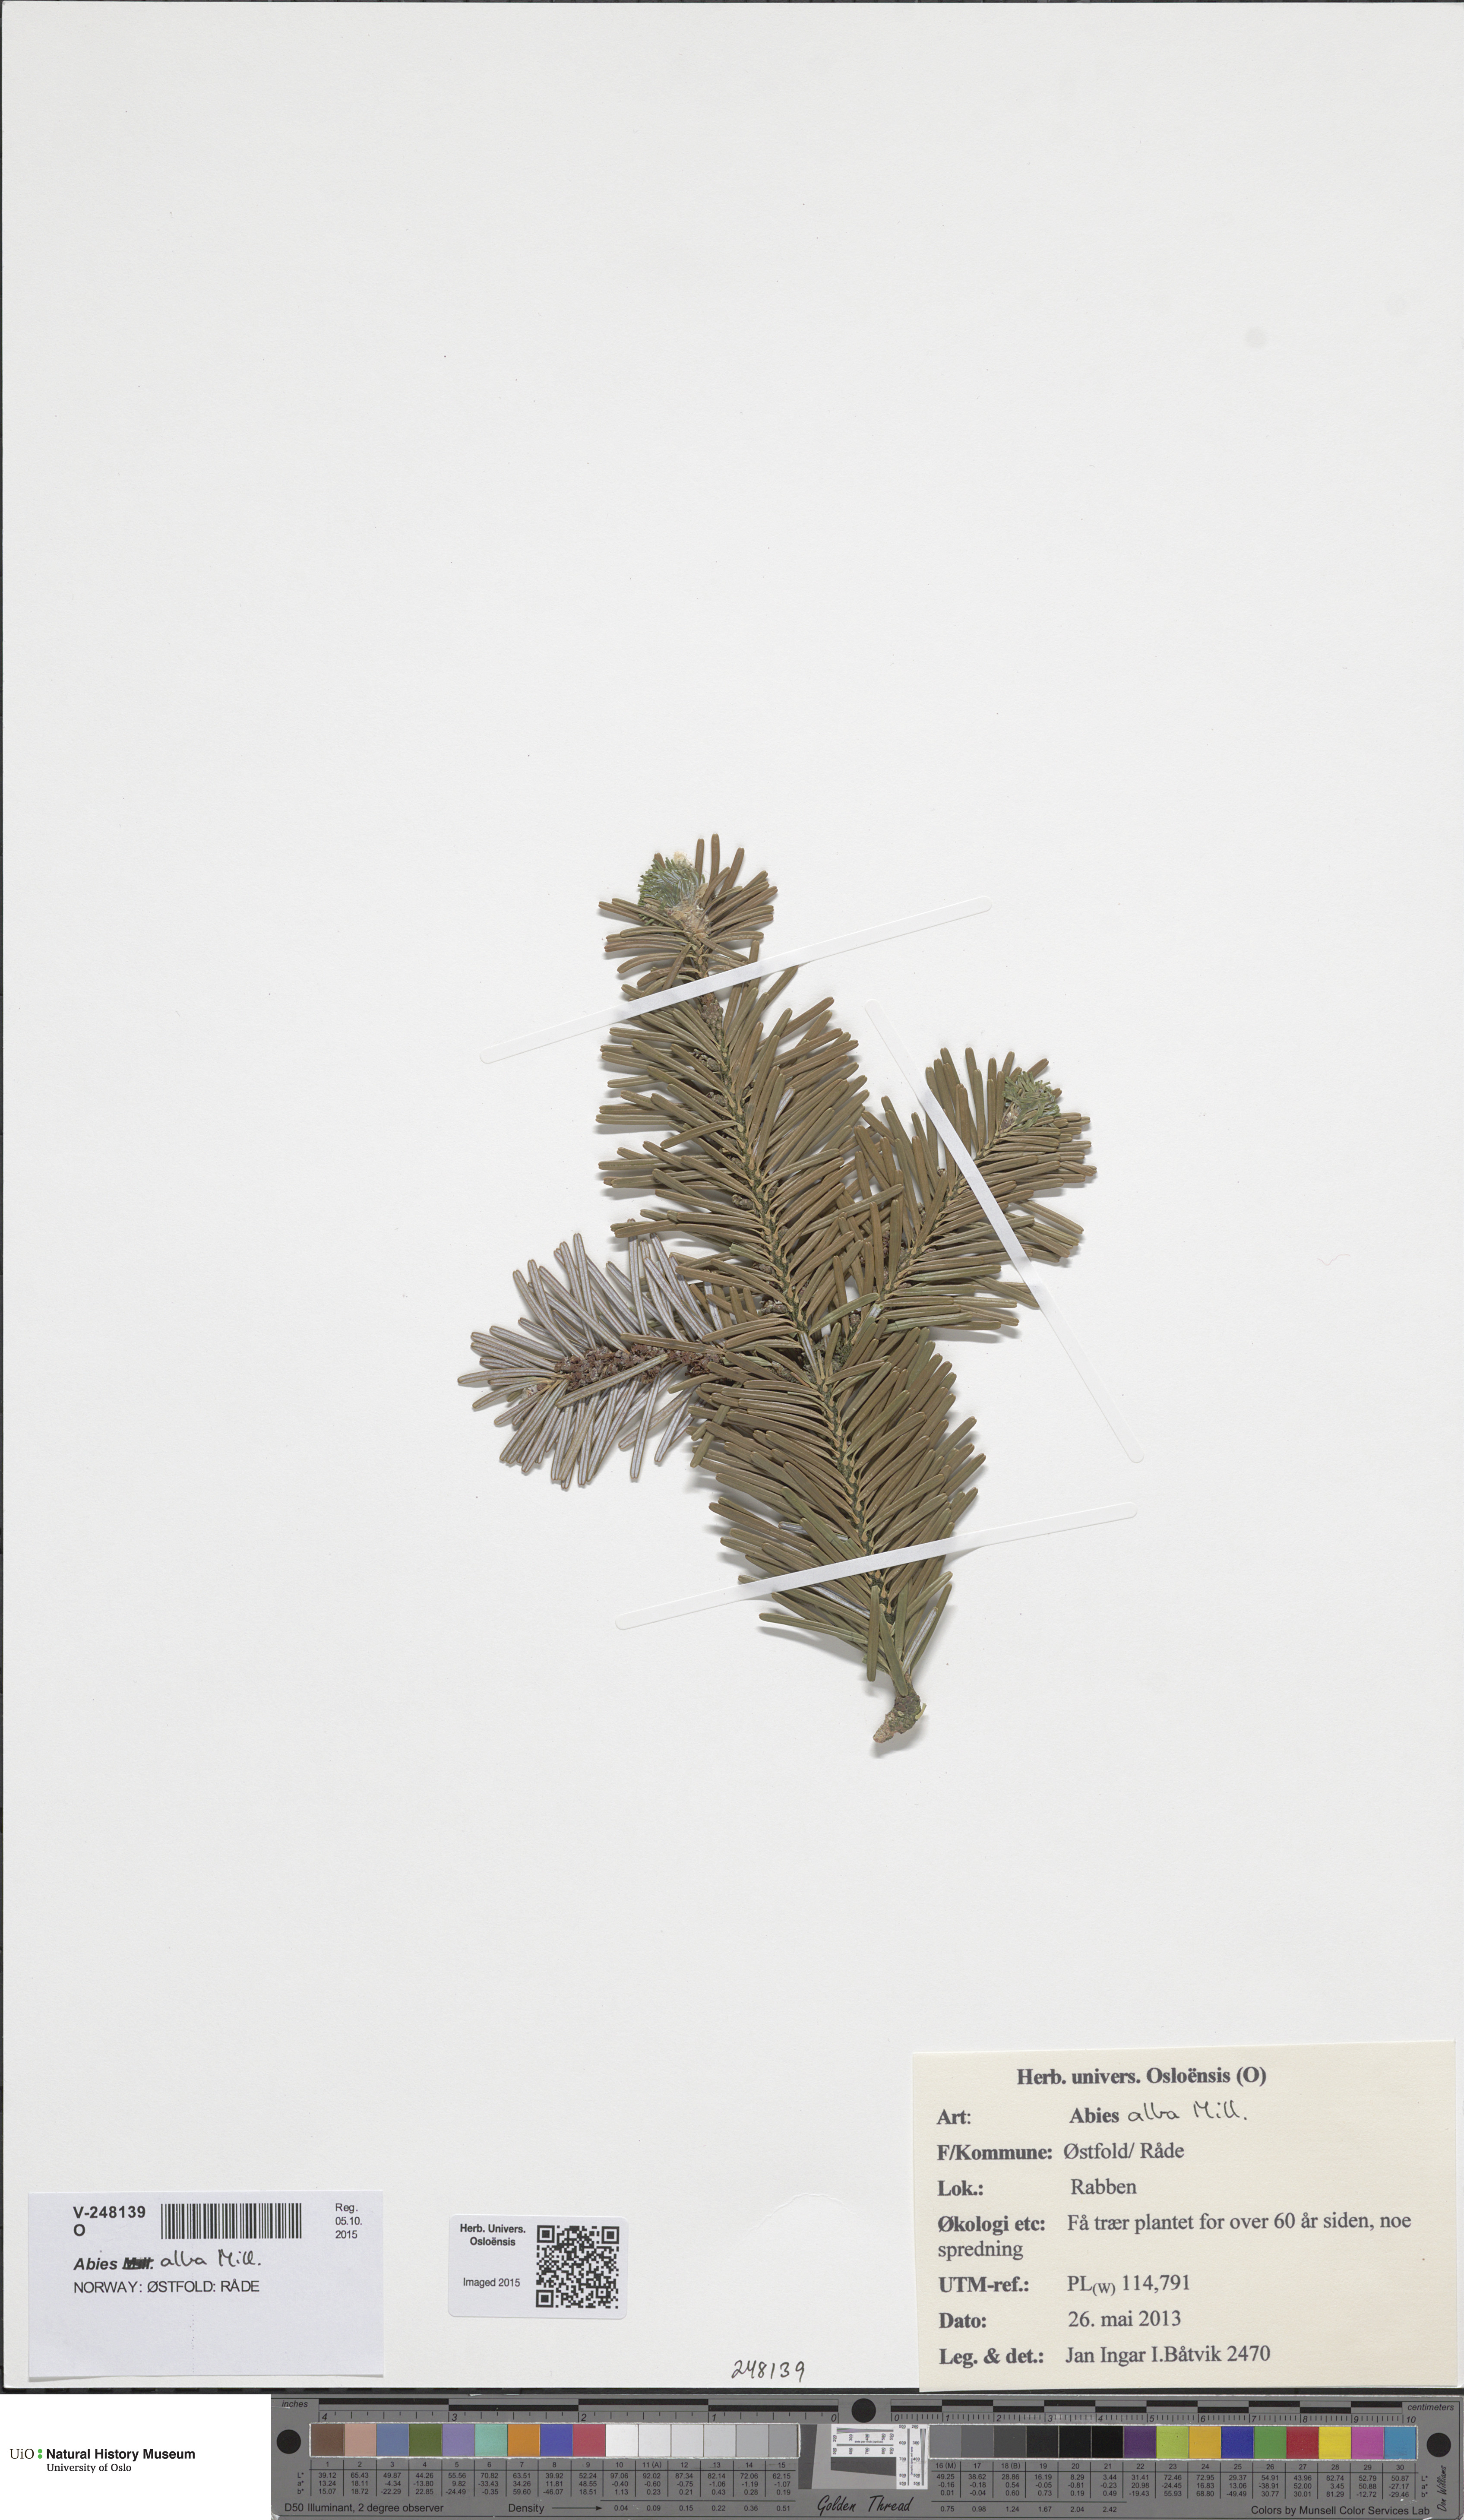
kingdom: Plantae
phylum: Tracheophyta
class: Pinopsida
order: Pinales
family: Pinaceae
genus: Abies
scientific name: Abies lasiocarpa
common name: Subalpine fir
